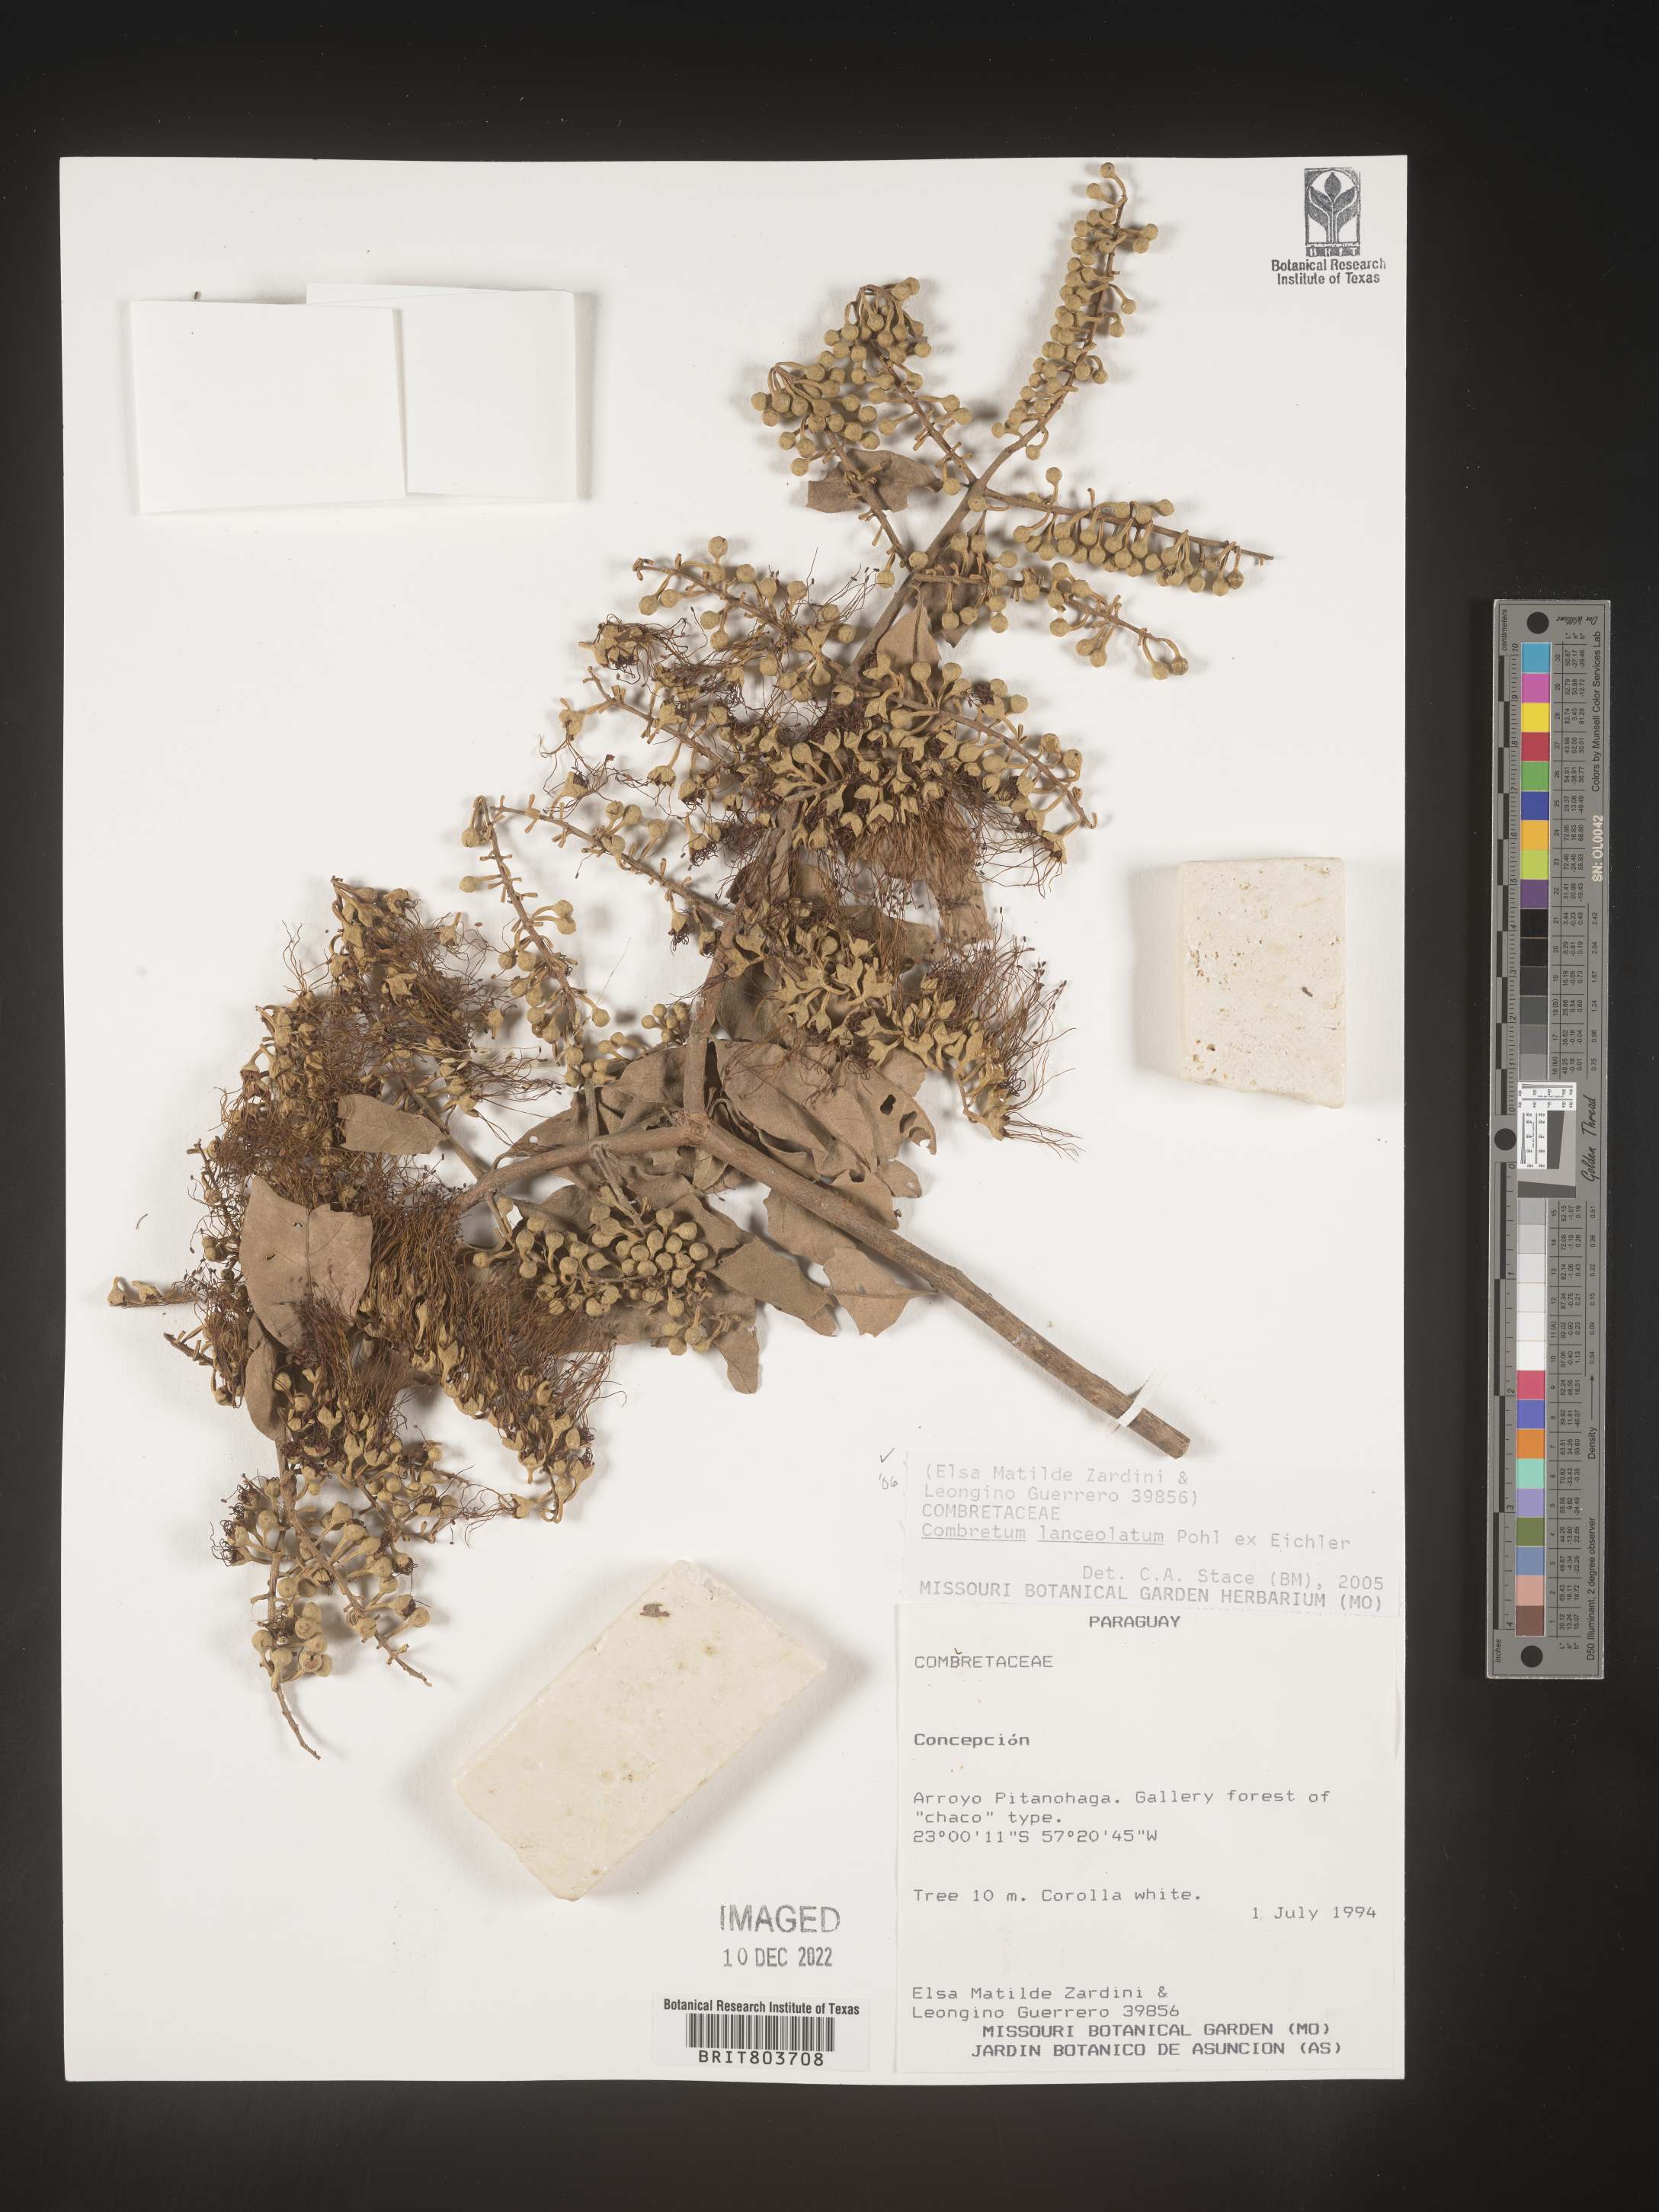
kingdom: Plantae
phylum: Tracheophyta
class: Magnoliopsida
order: Myrtales
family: Combretaceae
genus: Combretum
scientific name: Combretum
